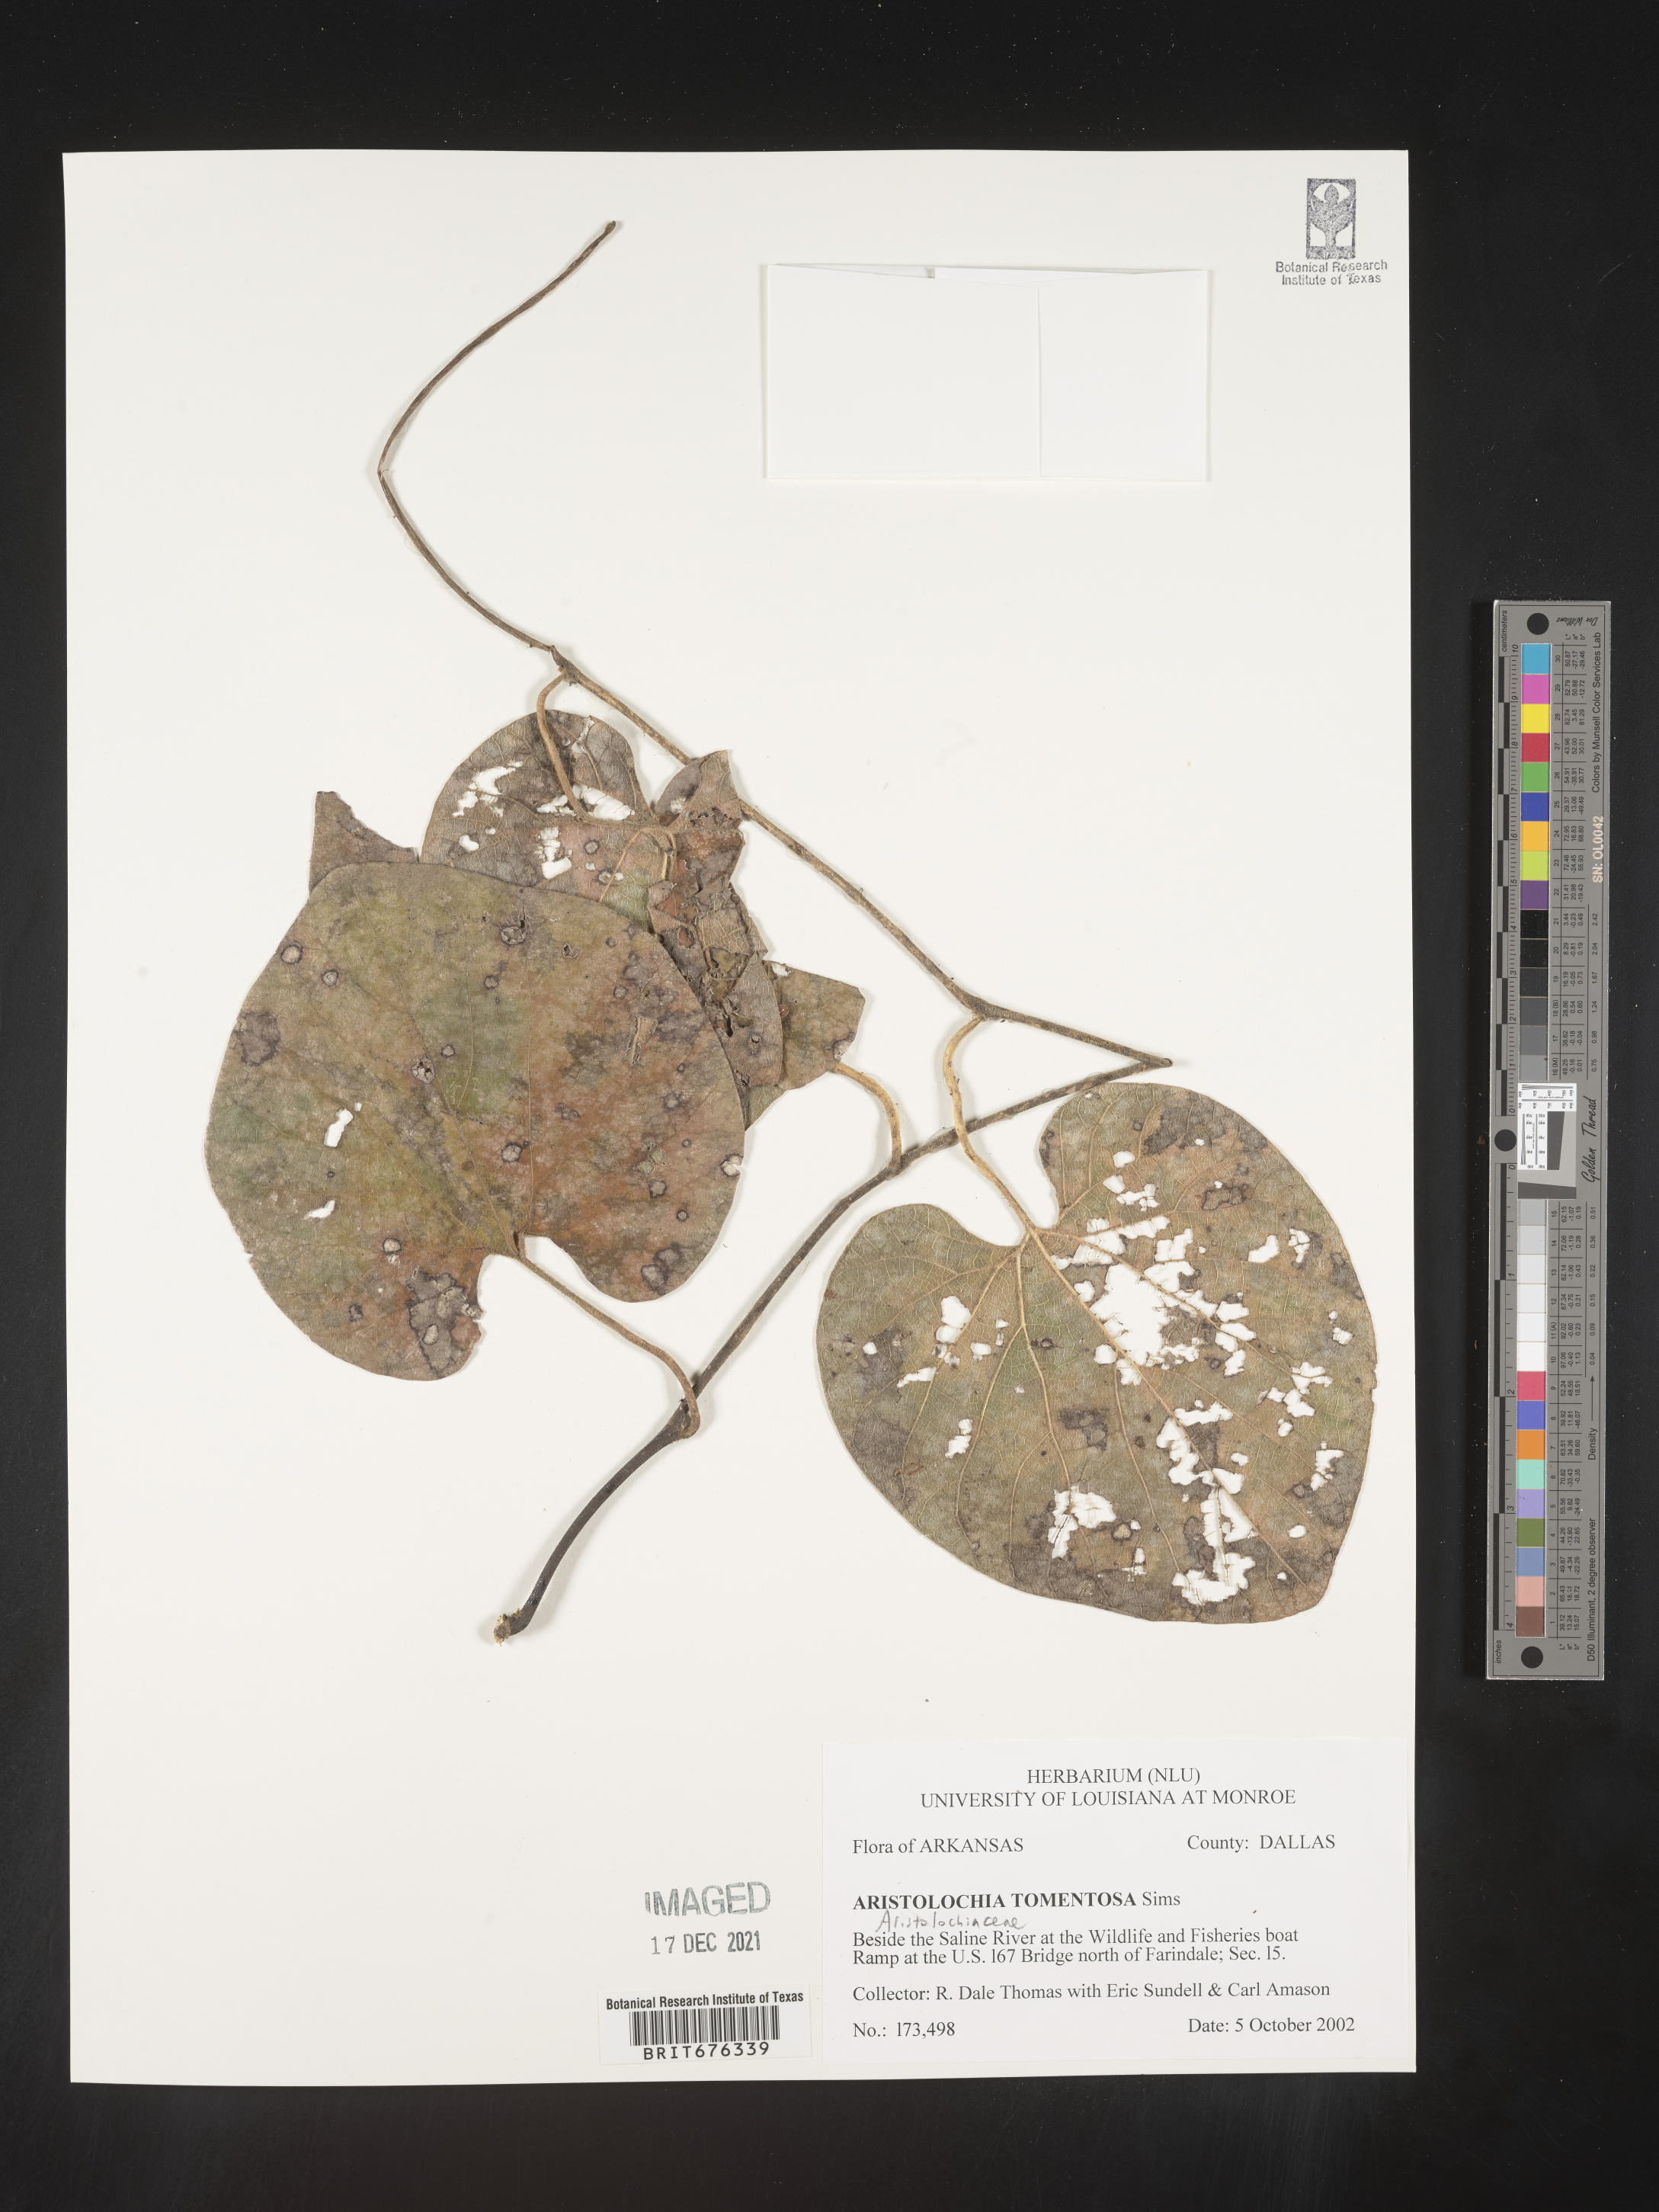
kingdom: Plantae
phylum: Tracheophyta
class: Magnoliopsida
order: Piperales
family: Aristolochiaceae
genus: Isotrema
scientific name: Isotrema tomentosum
